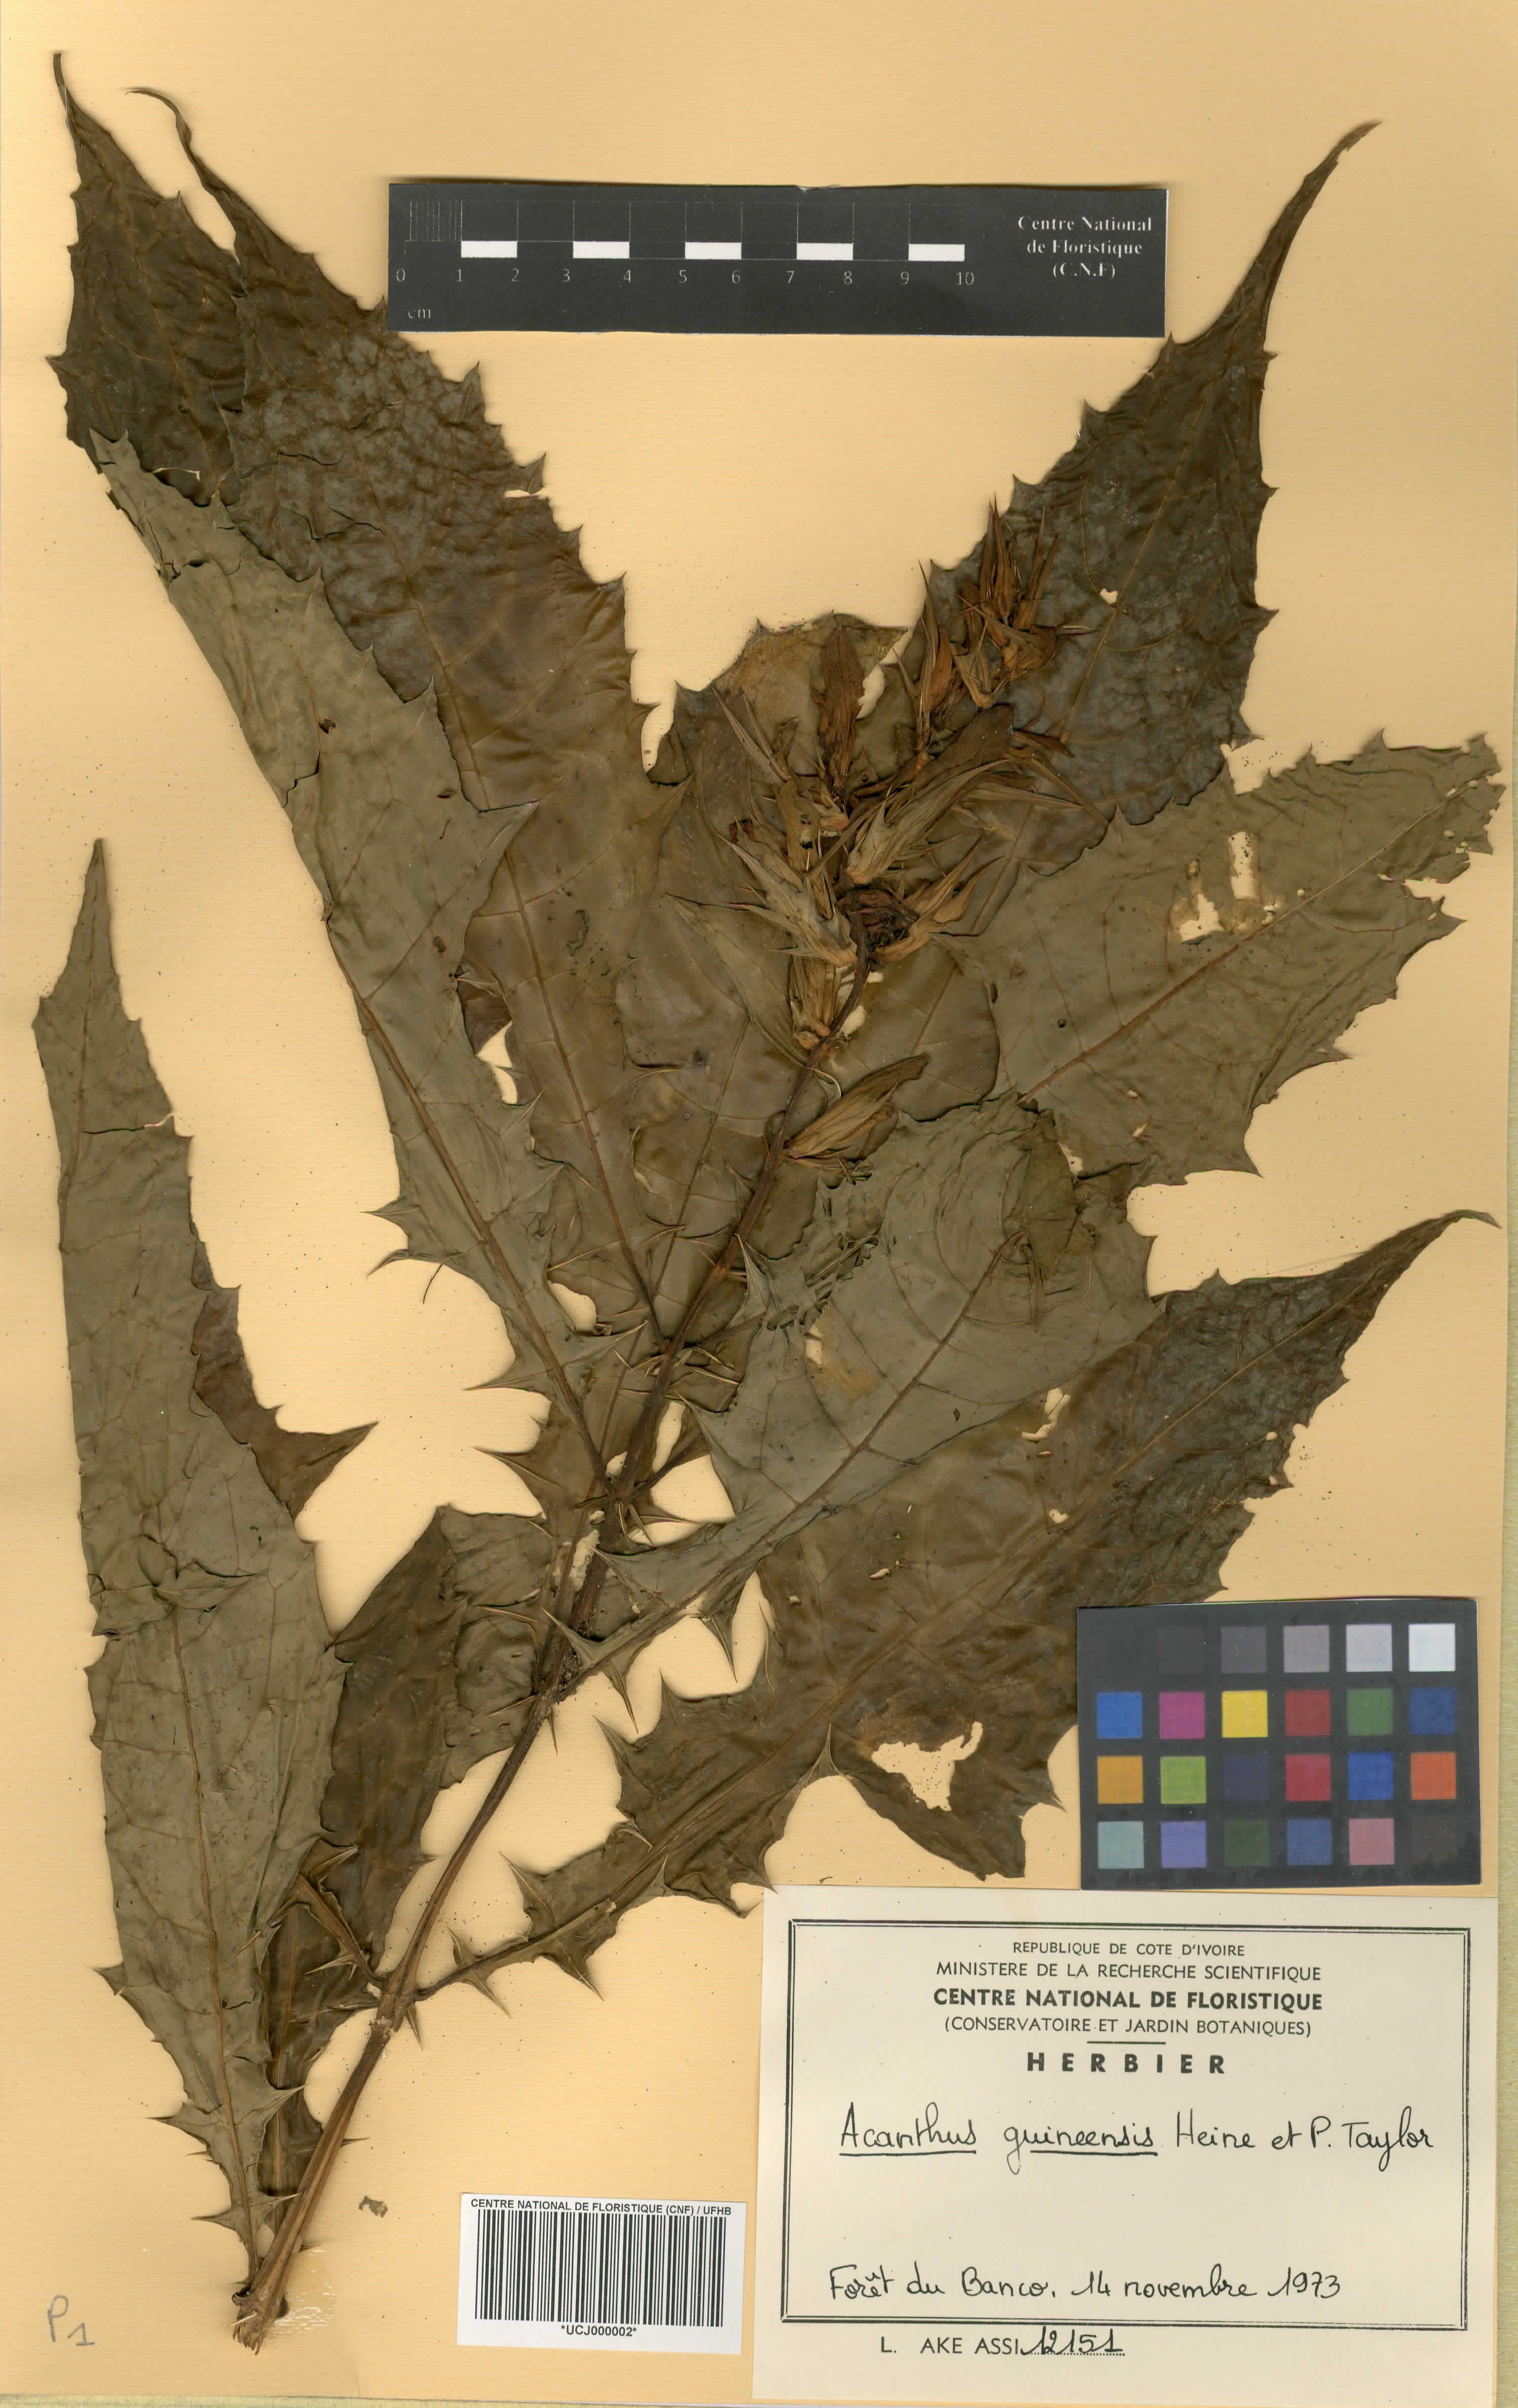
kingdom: Plantae
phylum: Tracheophyta
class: Magnoliopsida
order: Lamiales
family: Acanthaceae
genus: Acanthus
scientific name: Acanthus guineensis
